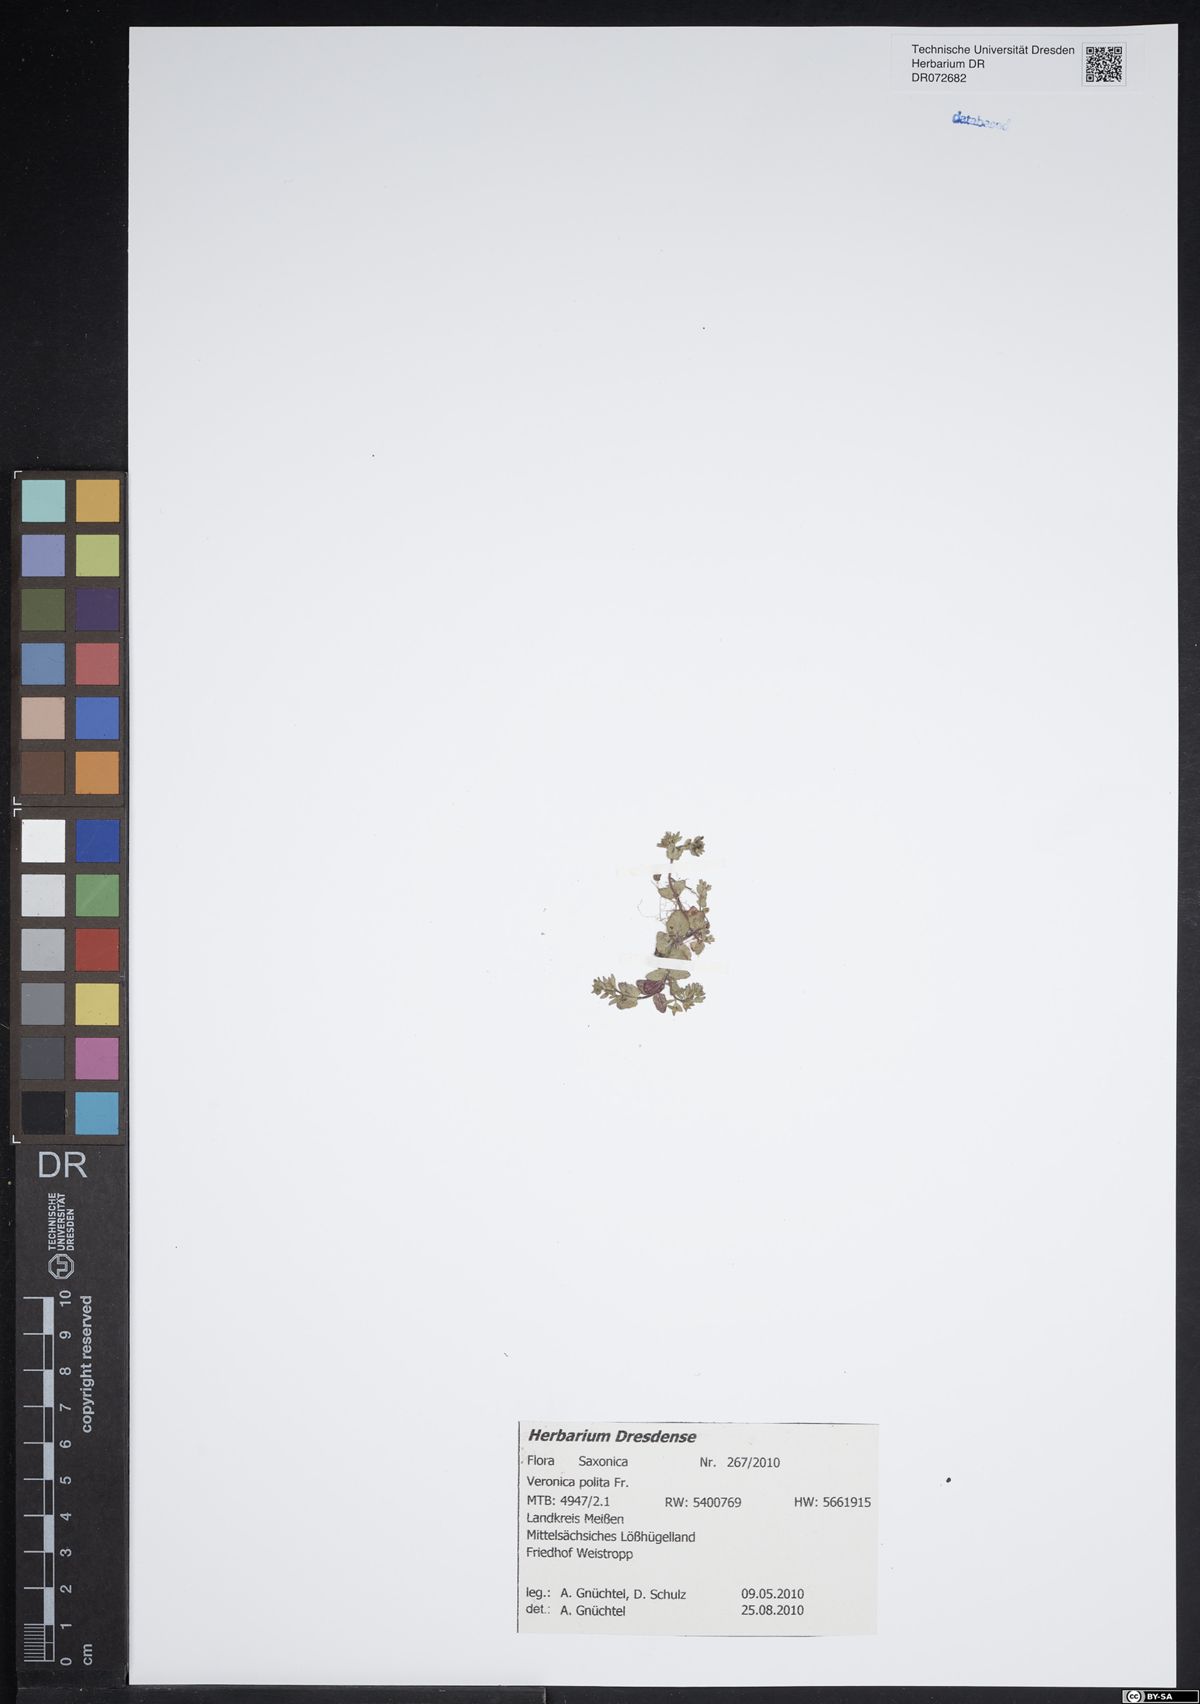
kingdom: Plantae
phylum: Tracheophyta
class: Magnoliopsida
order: Lamiales
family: Plantaginaceae
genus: Veronica
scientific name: Veronica polita
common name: Grey field-speedwell
